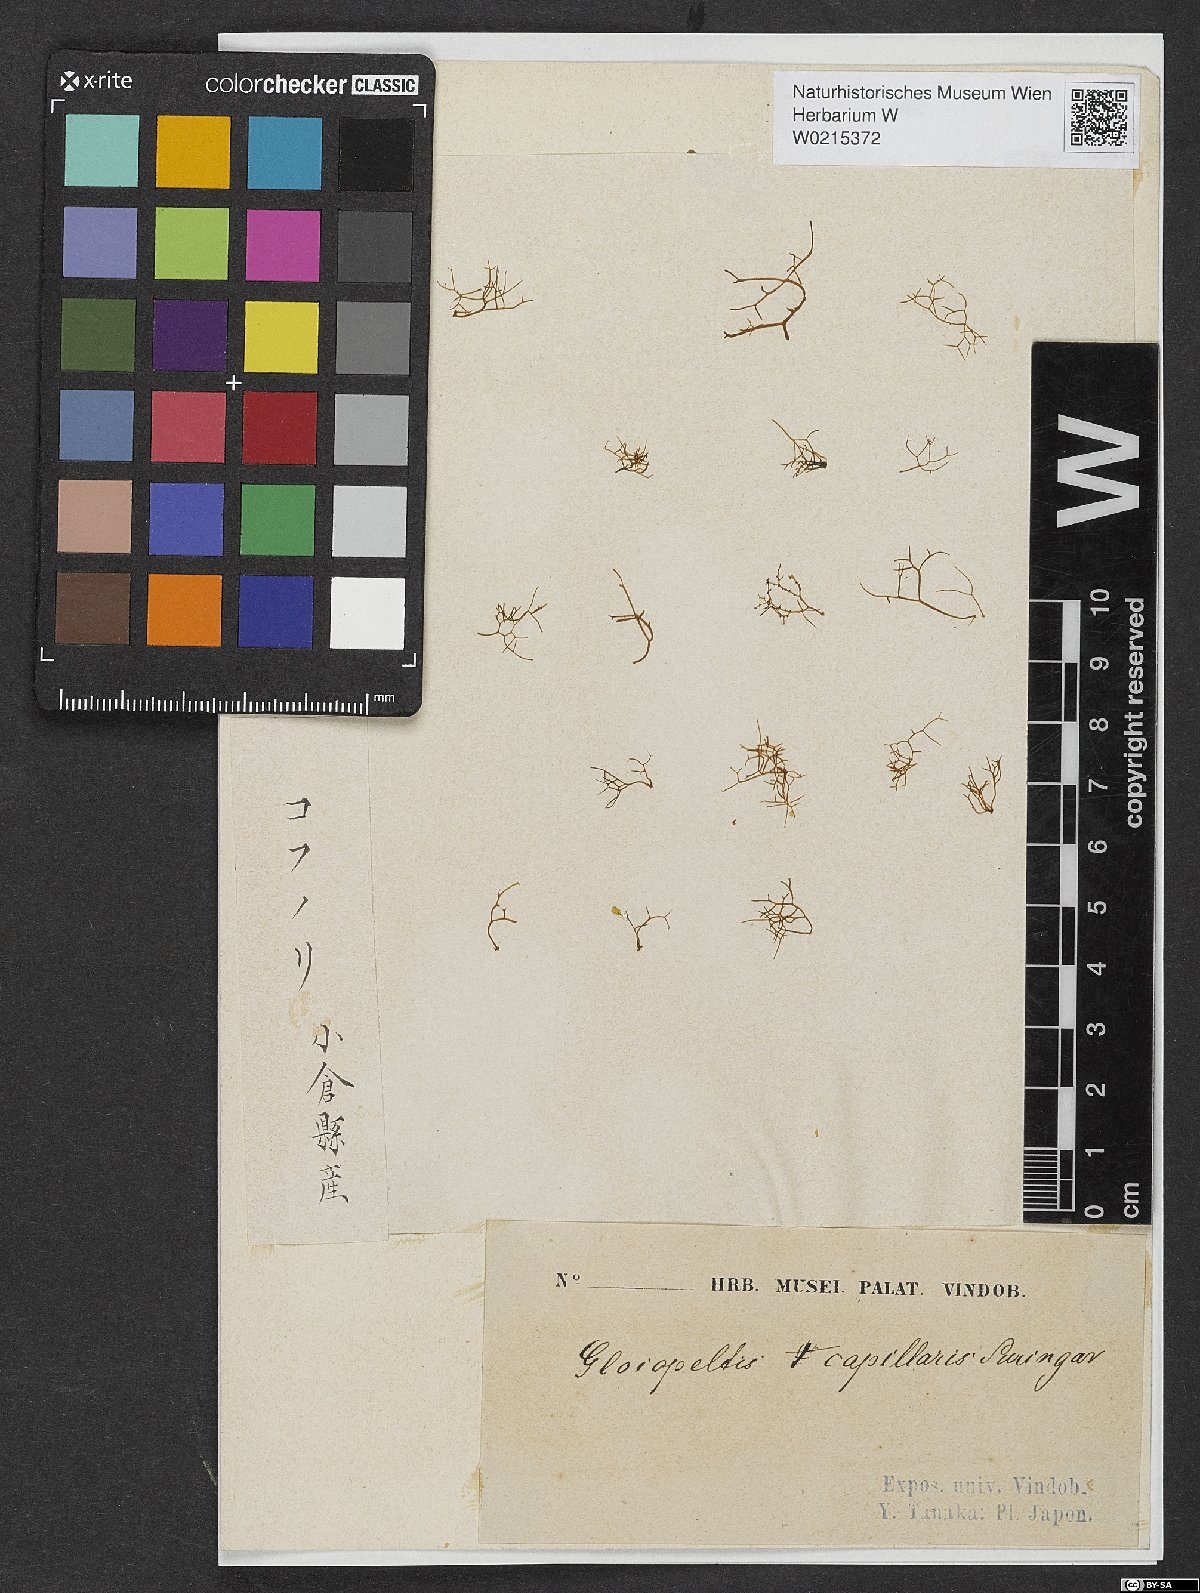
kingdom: Plantae
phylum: Rhodophyta
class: Florideophyceae
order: Gigartinales
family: Endocladiaceae
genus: Gloiopeltis
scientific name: Gloiopeltis tenax
